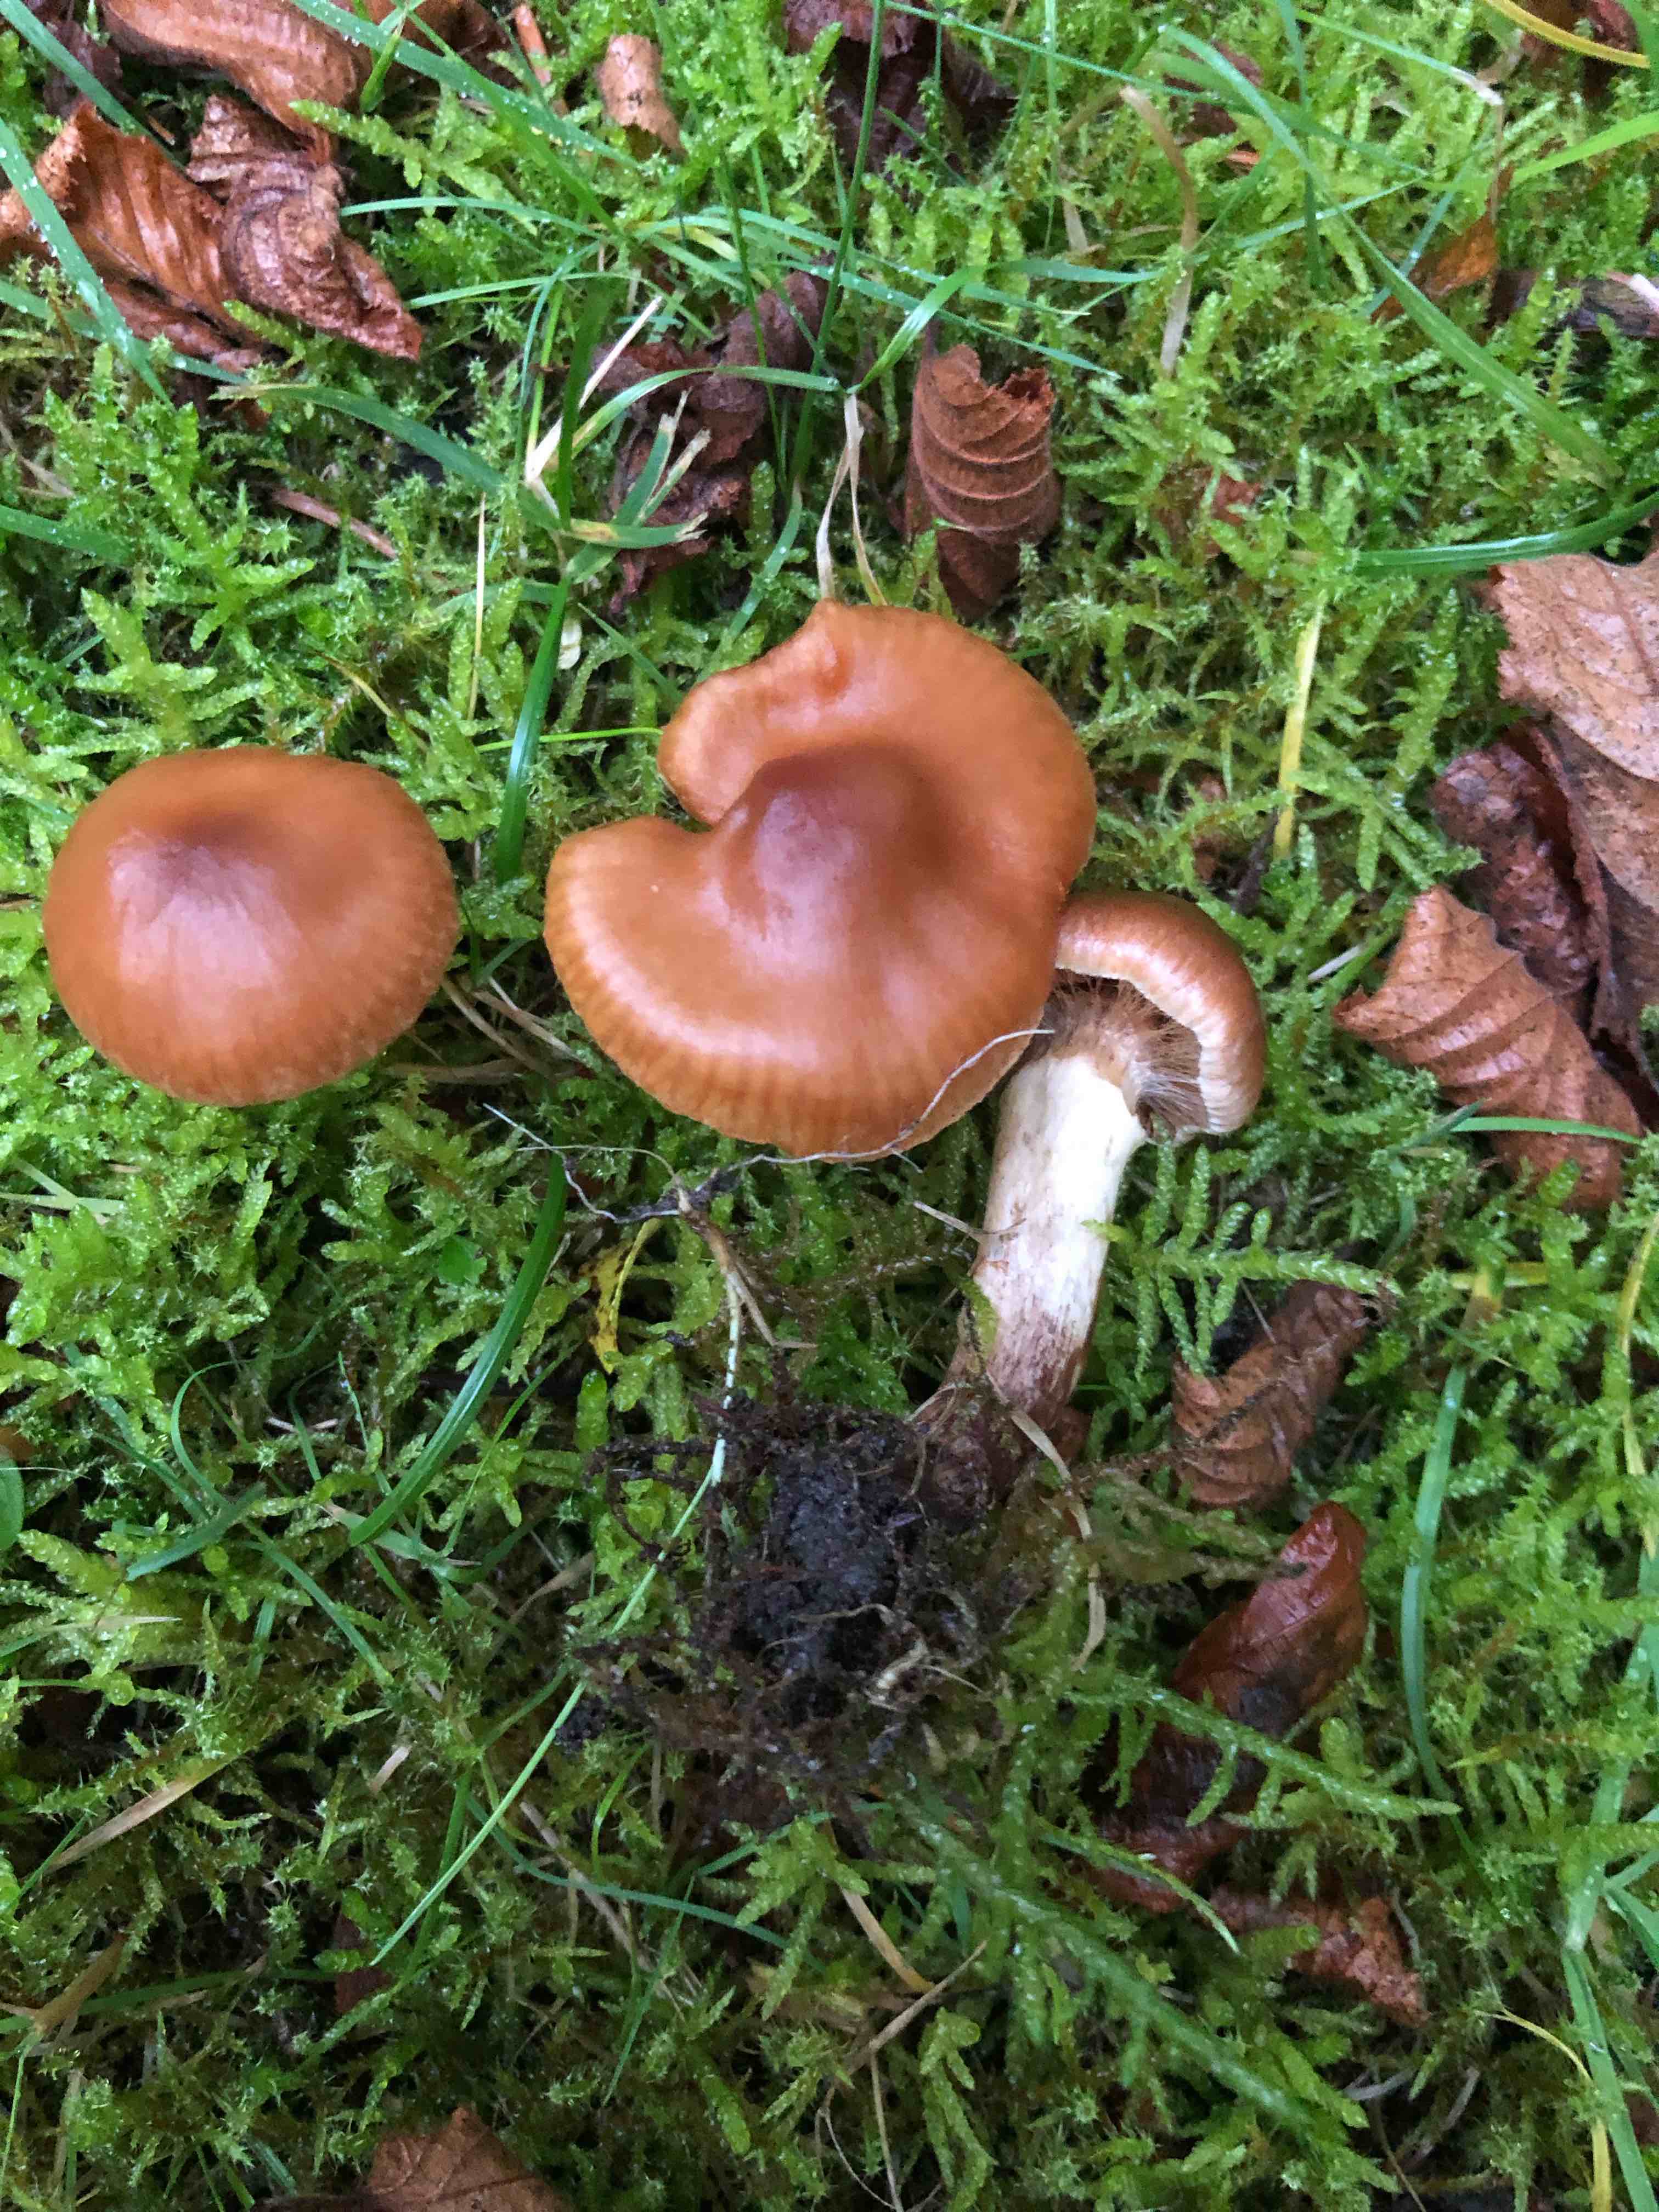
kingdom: Fungi
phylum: Basidiomycota
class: Agaricomycetes
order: Agaricales
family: Cortinariaceae
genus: Cortinarius
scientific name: Cortinarius hinnuleus
